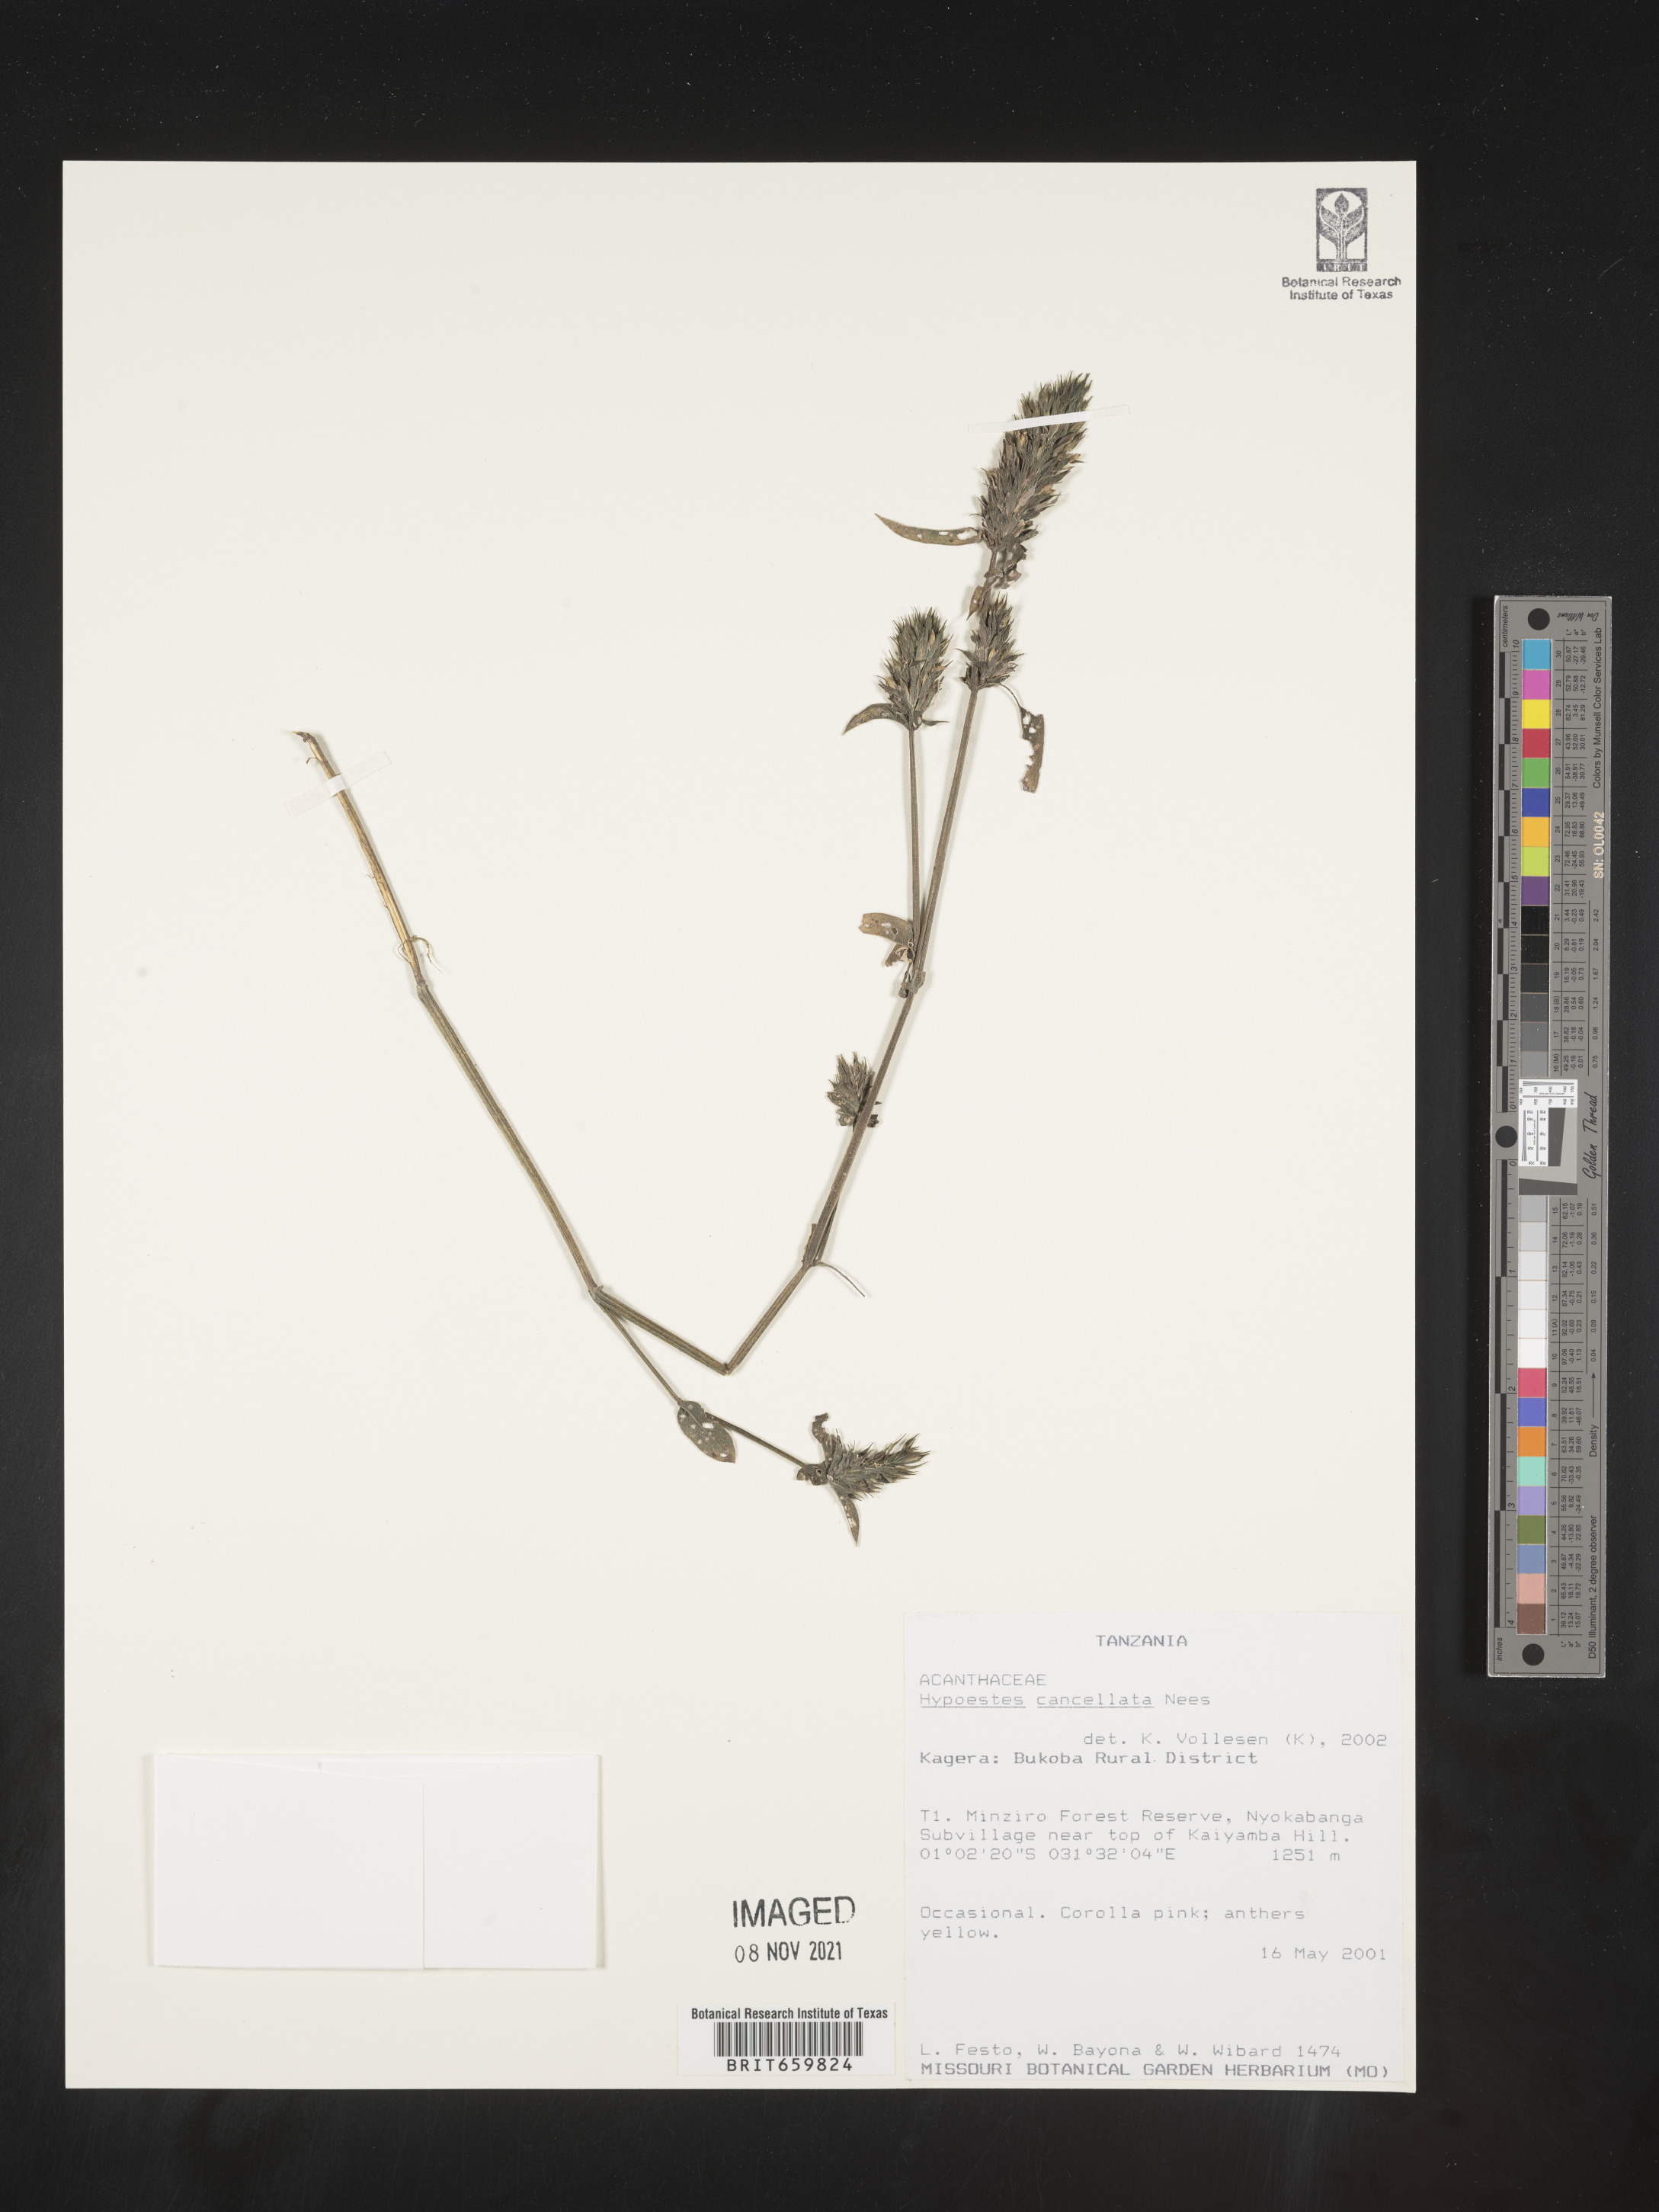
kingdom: Plantae
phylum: Tracheophyta
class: Magnoliopsida
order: Lamiales
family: Acanthaceae
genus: Hypoestes
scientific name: Hypoestes cancellata
